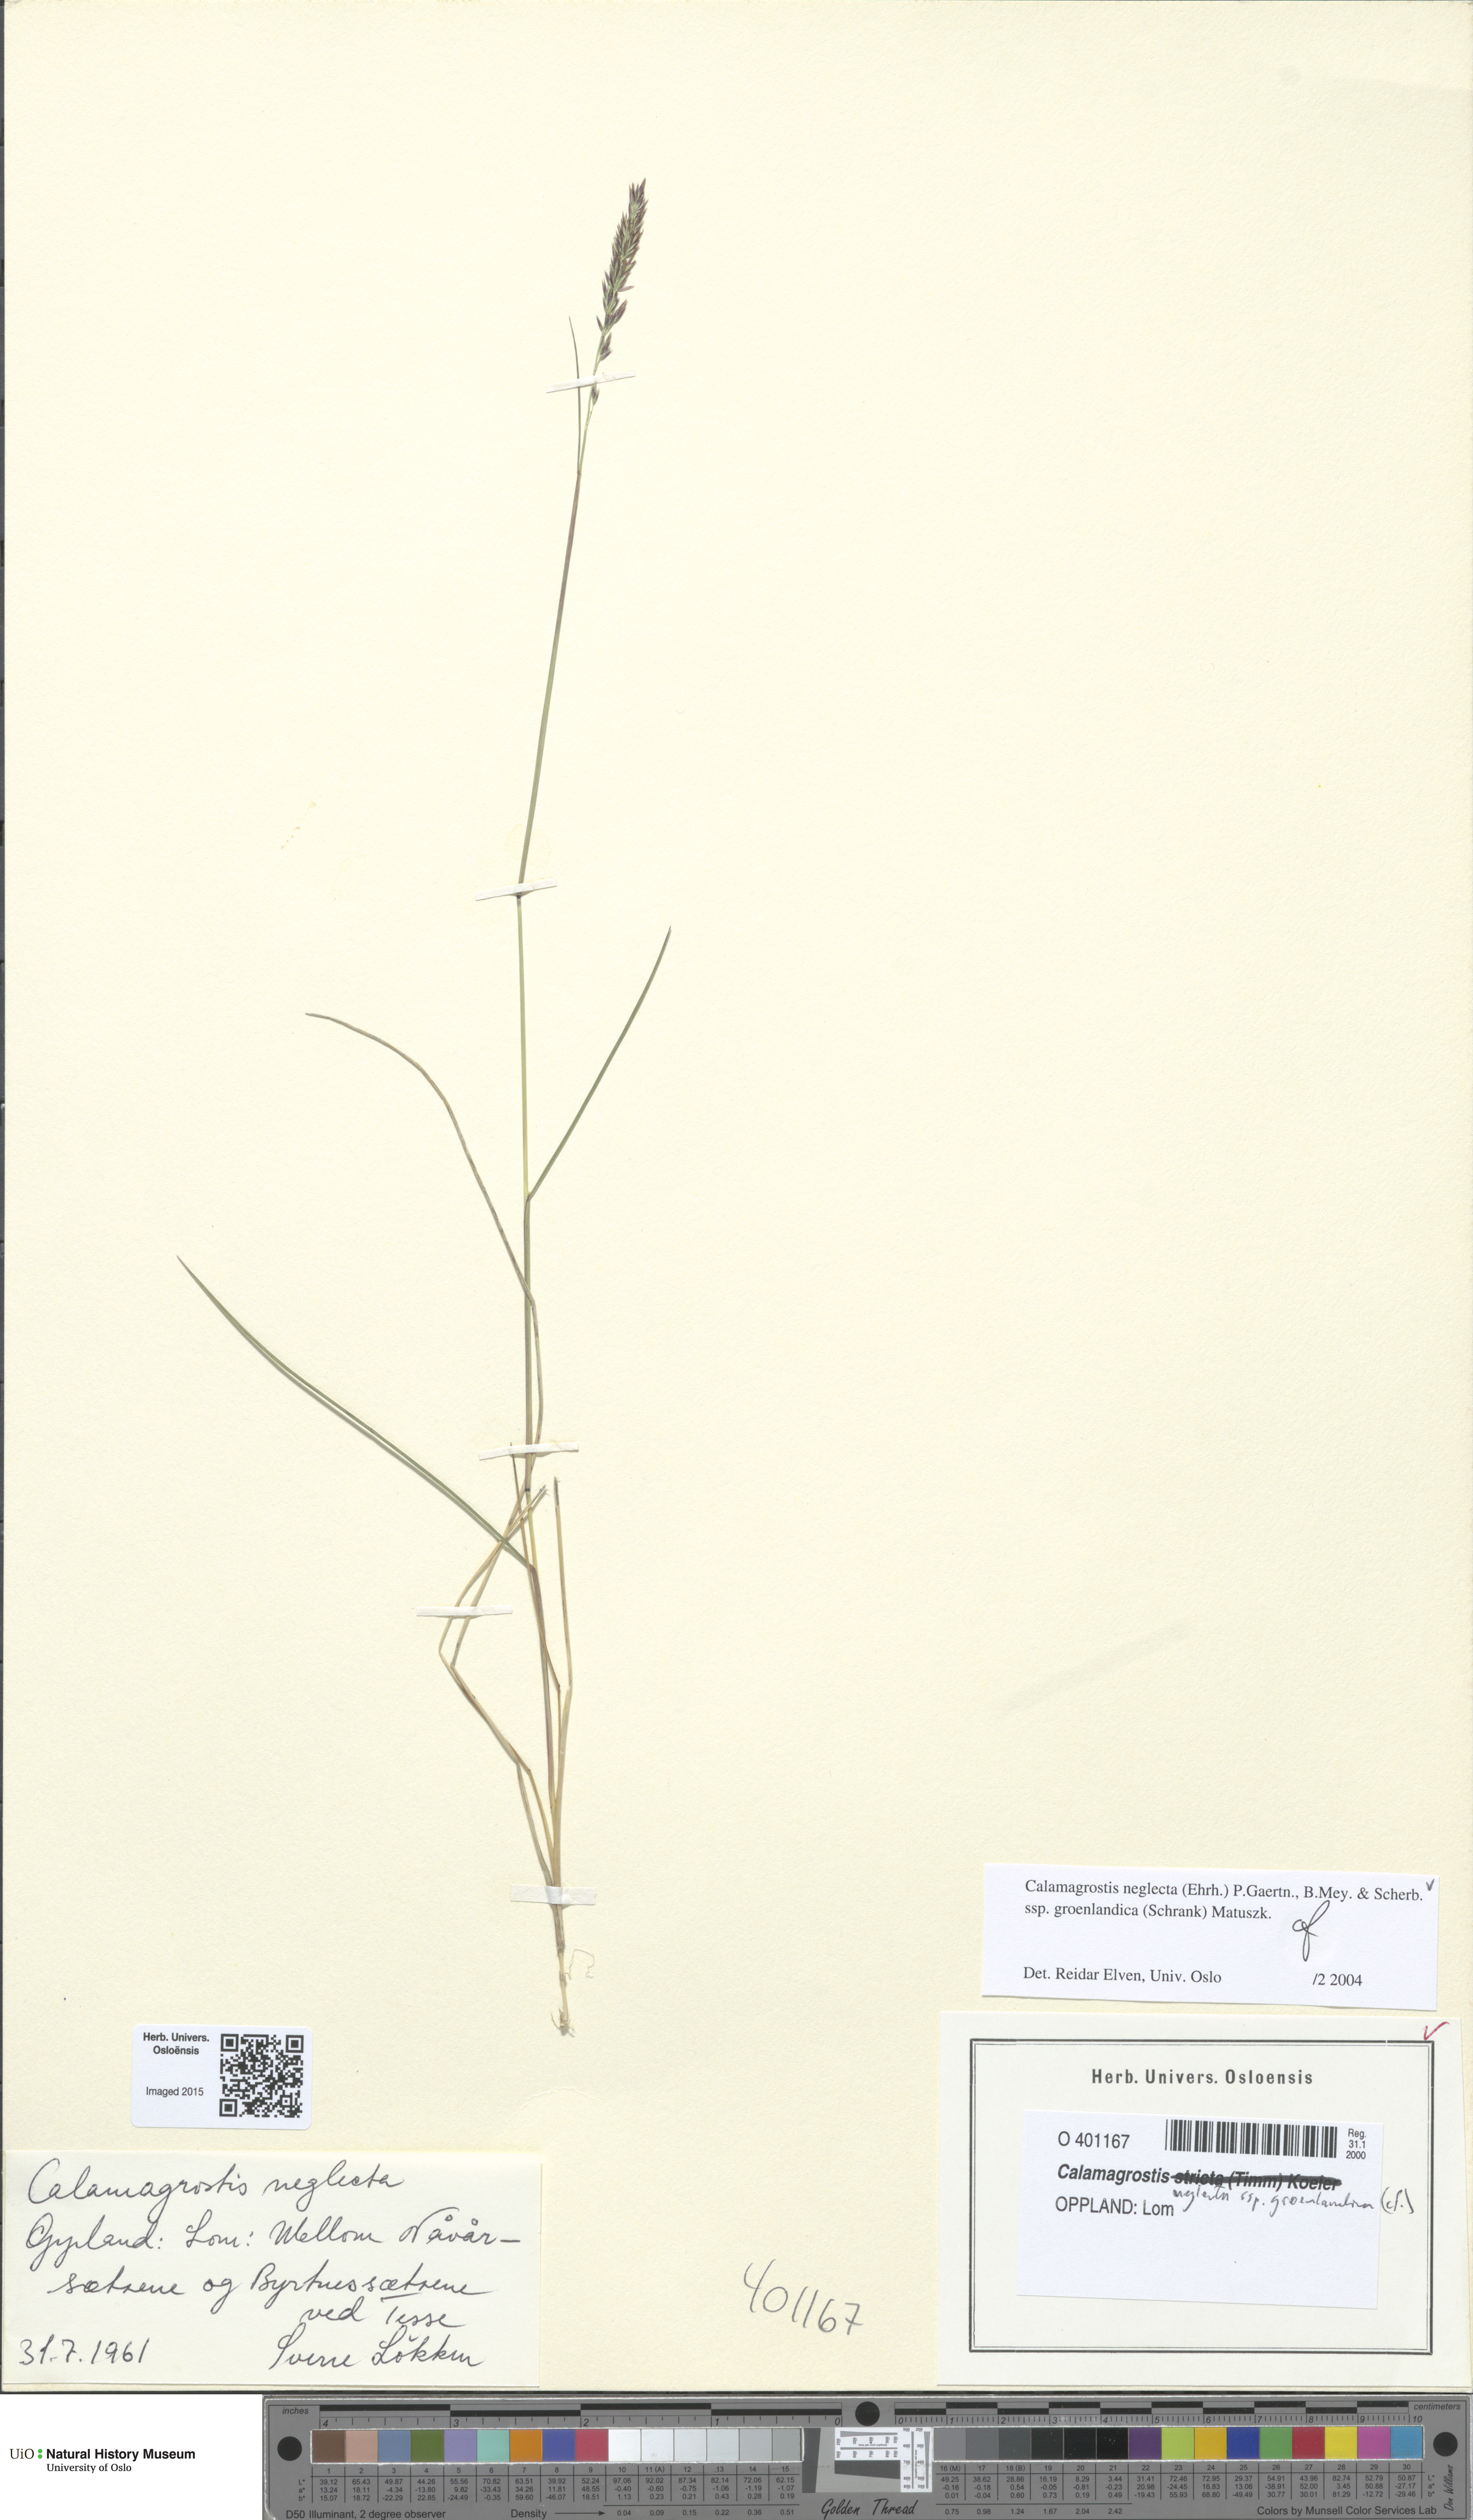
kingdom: Plantae
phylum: Tracheophyta
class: Liliopsida
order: Poales
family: Poaceae
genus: Calamagrostis
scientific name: Calamagrostis stricta
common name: Narrow small-reed
